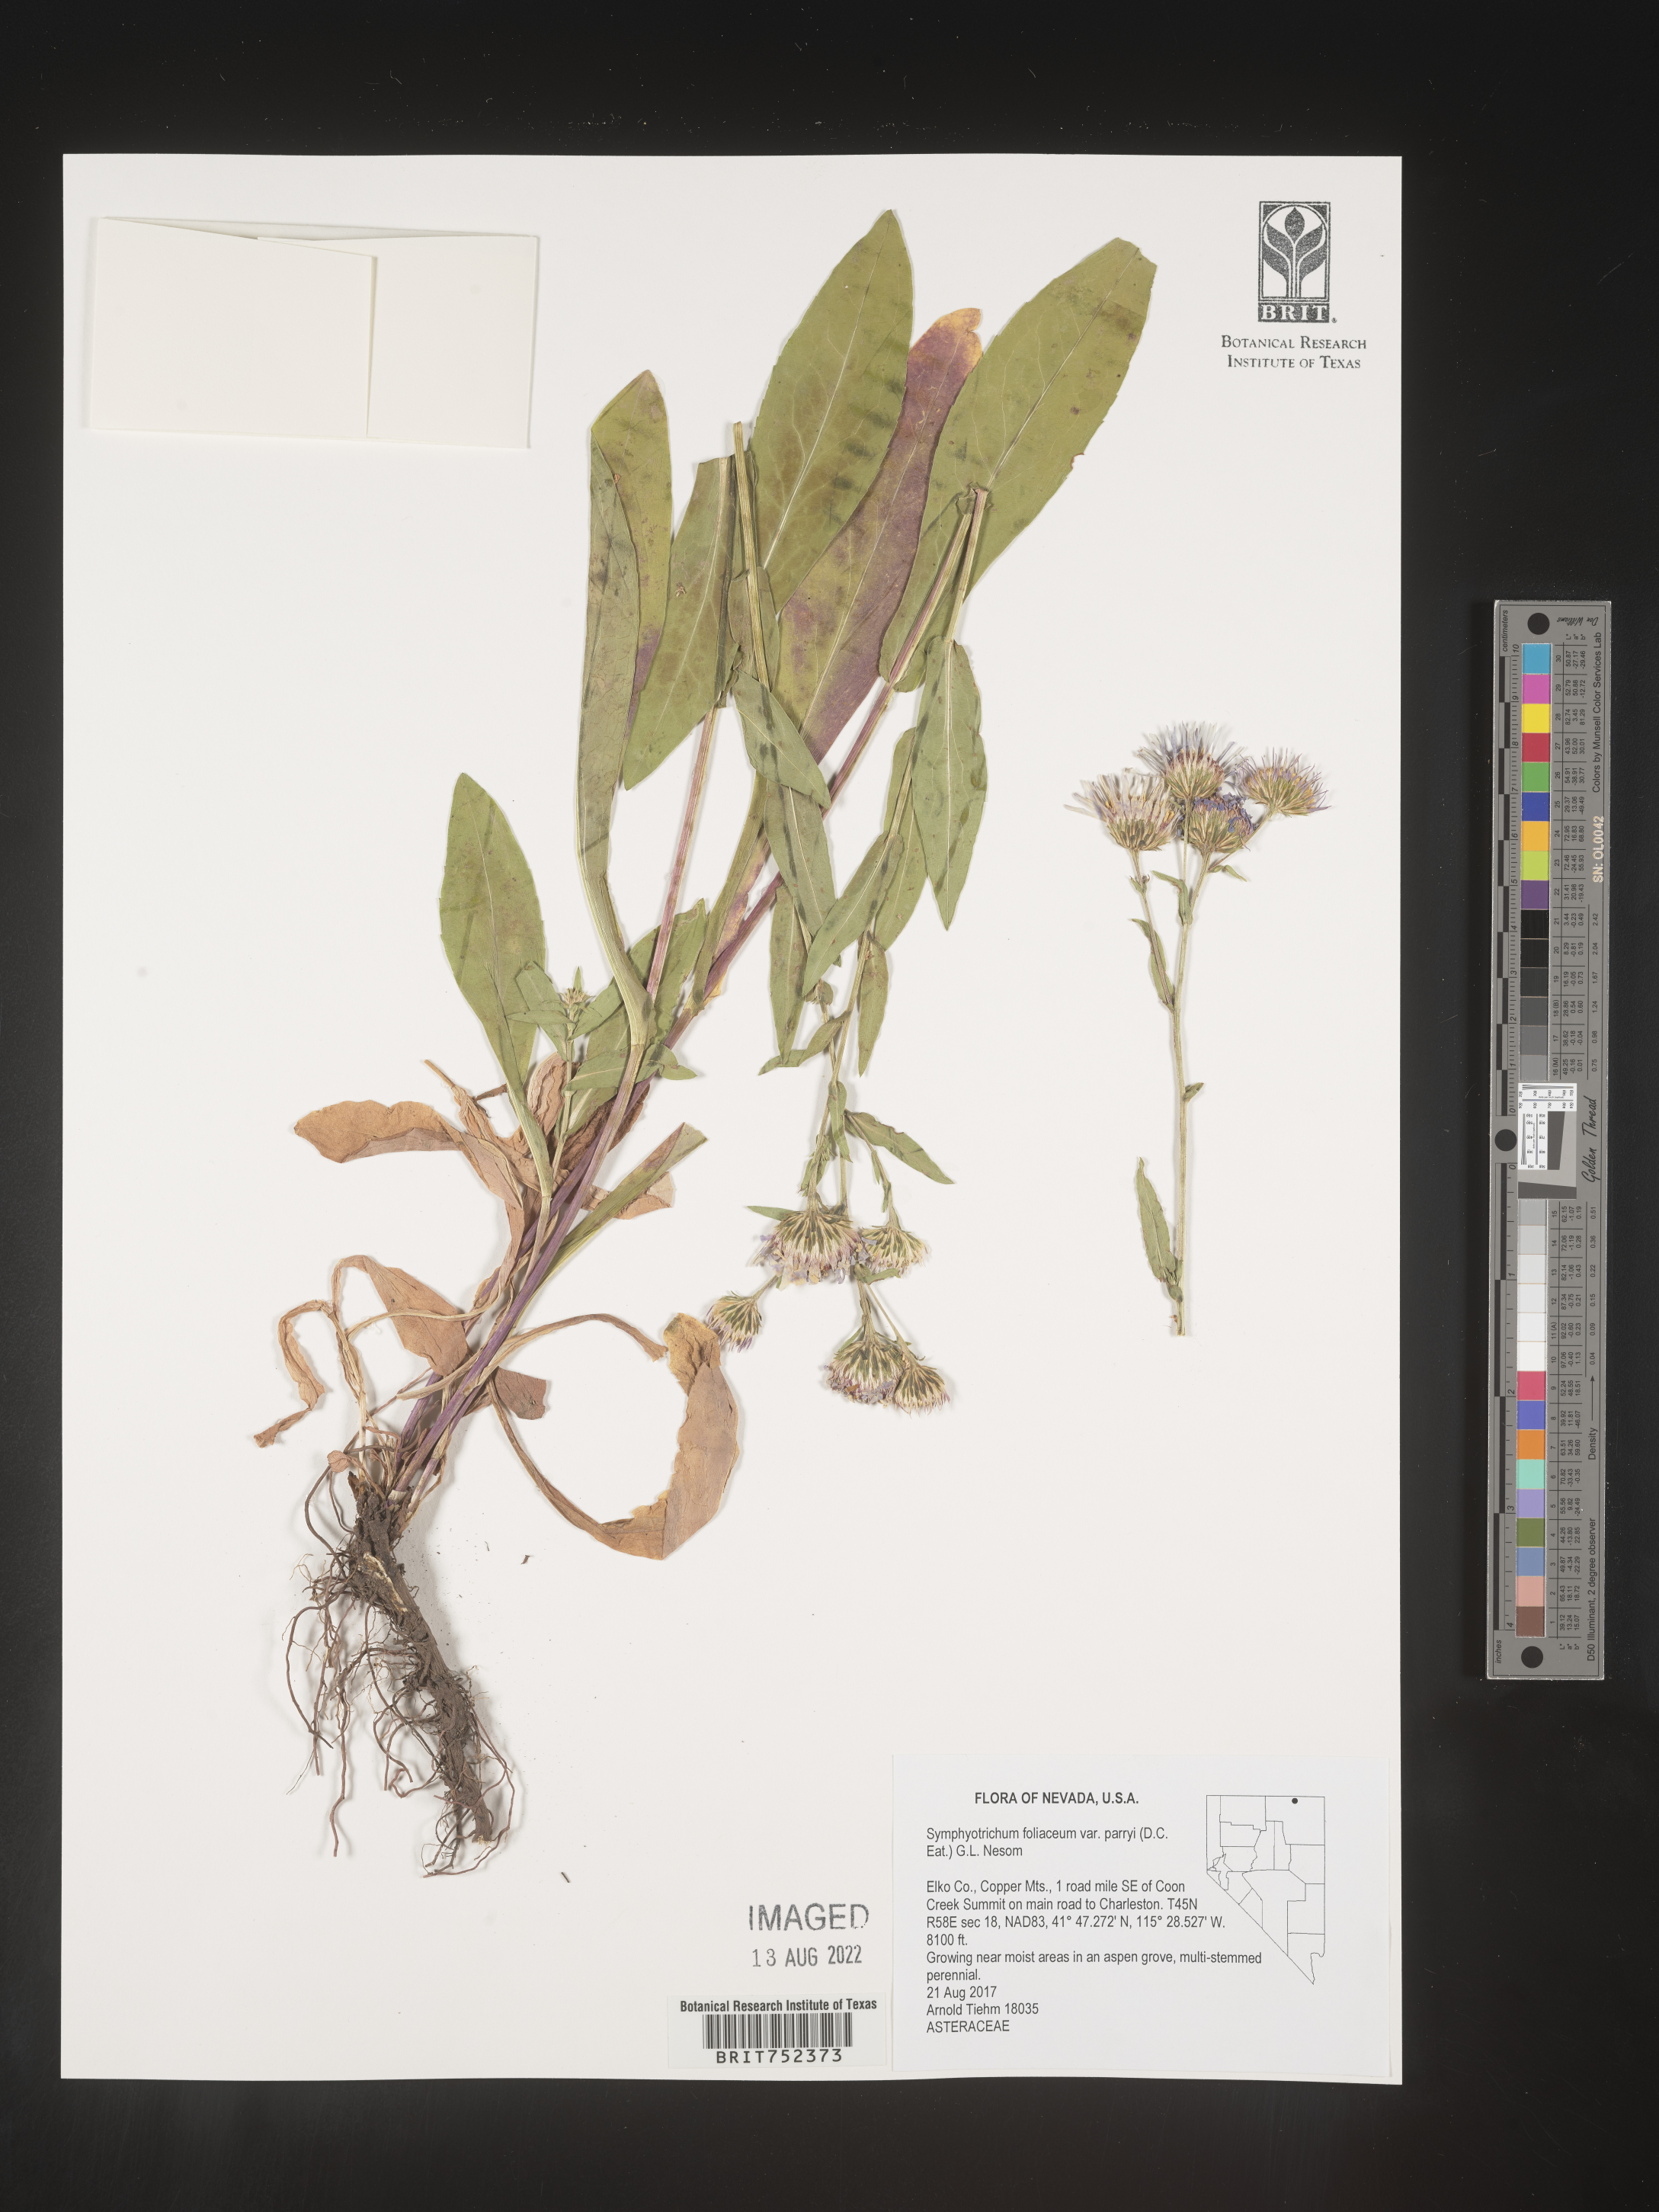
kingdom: Plantae
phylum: Tracheophyta
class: Magnoliopsida
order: Asterales
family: Asteraceae
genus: Symphyotrichum
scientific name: Symphyotrichum foliaceum
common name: Leafy aster
